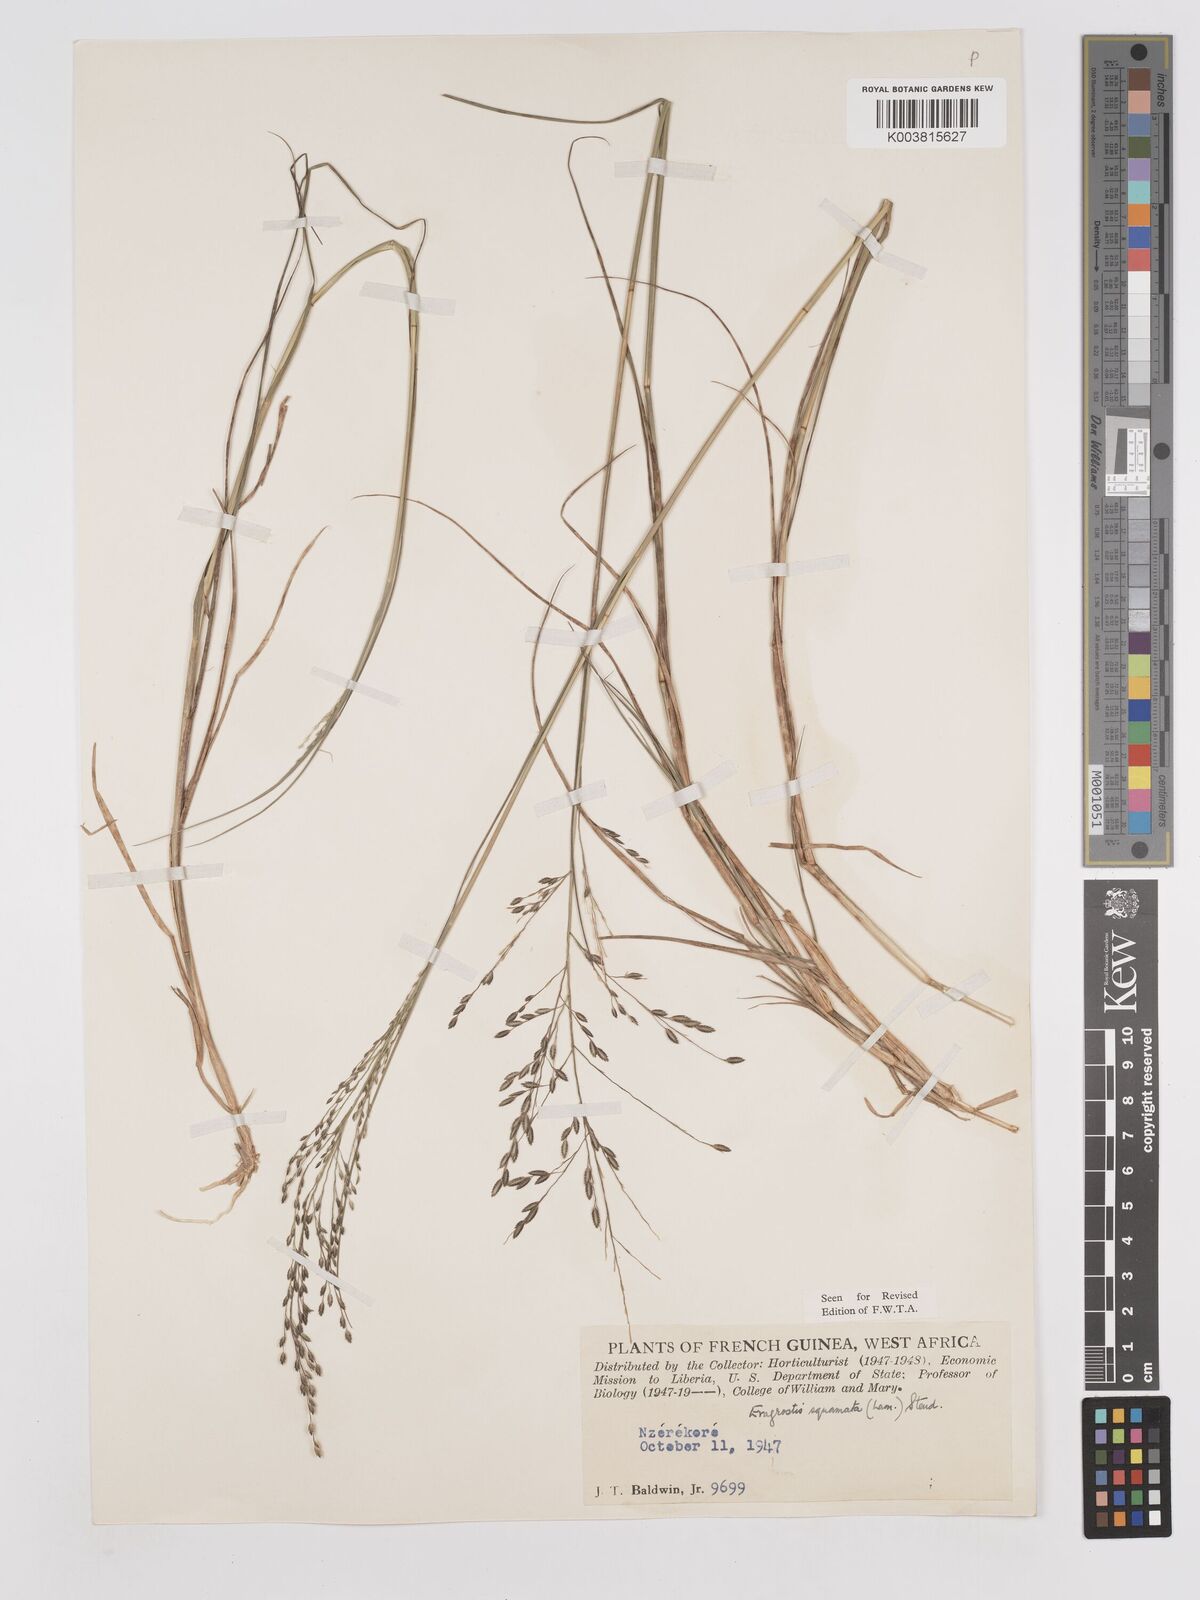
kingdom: Plantae
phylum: Tracheophyta
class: Liliopsida
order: Poales
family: Poaceae
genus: Eragrostis
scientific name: Eragrostis squamata
